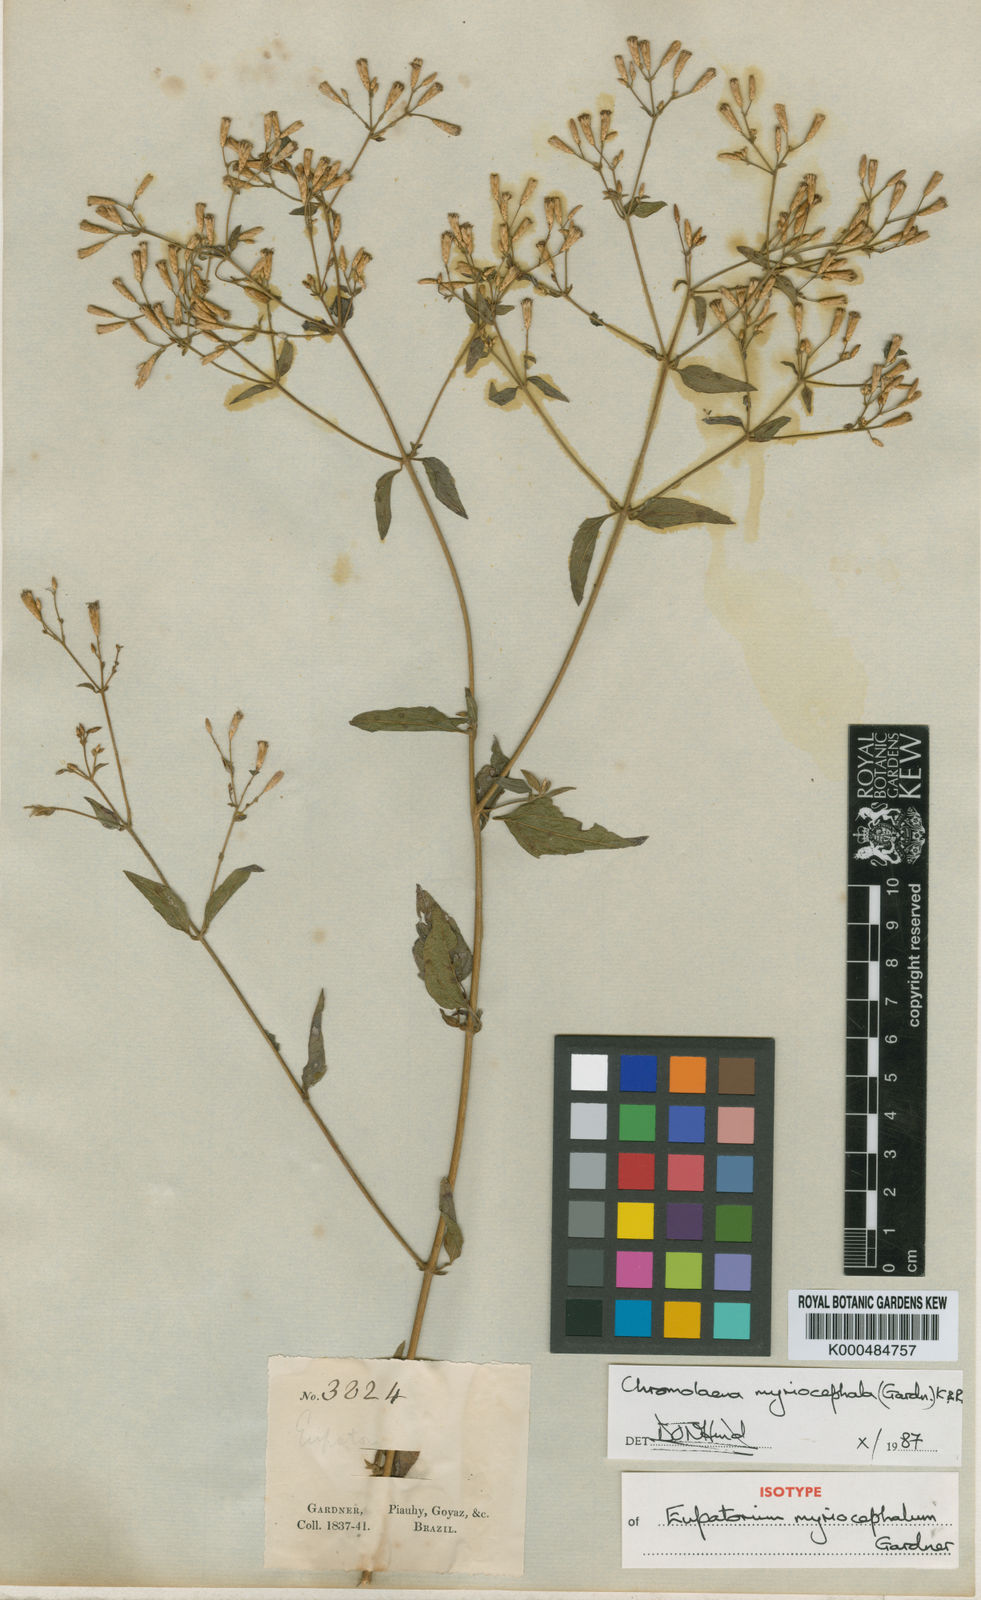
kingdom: Plantae
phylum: Tracheophyta
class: Magnoliopsida
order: Asterales
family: Asteraceae
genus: Chromolaena
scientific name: Chromolaena myriocephala
